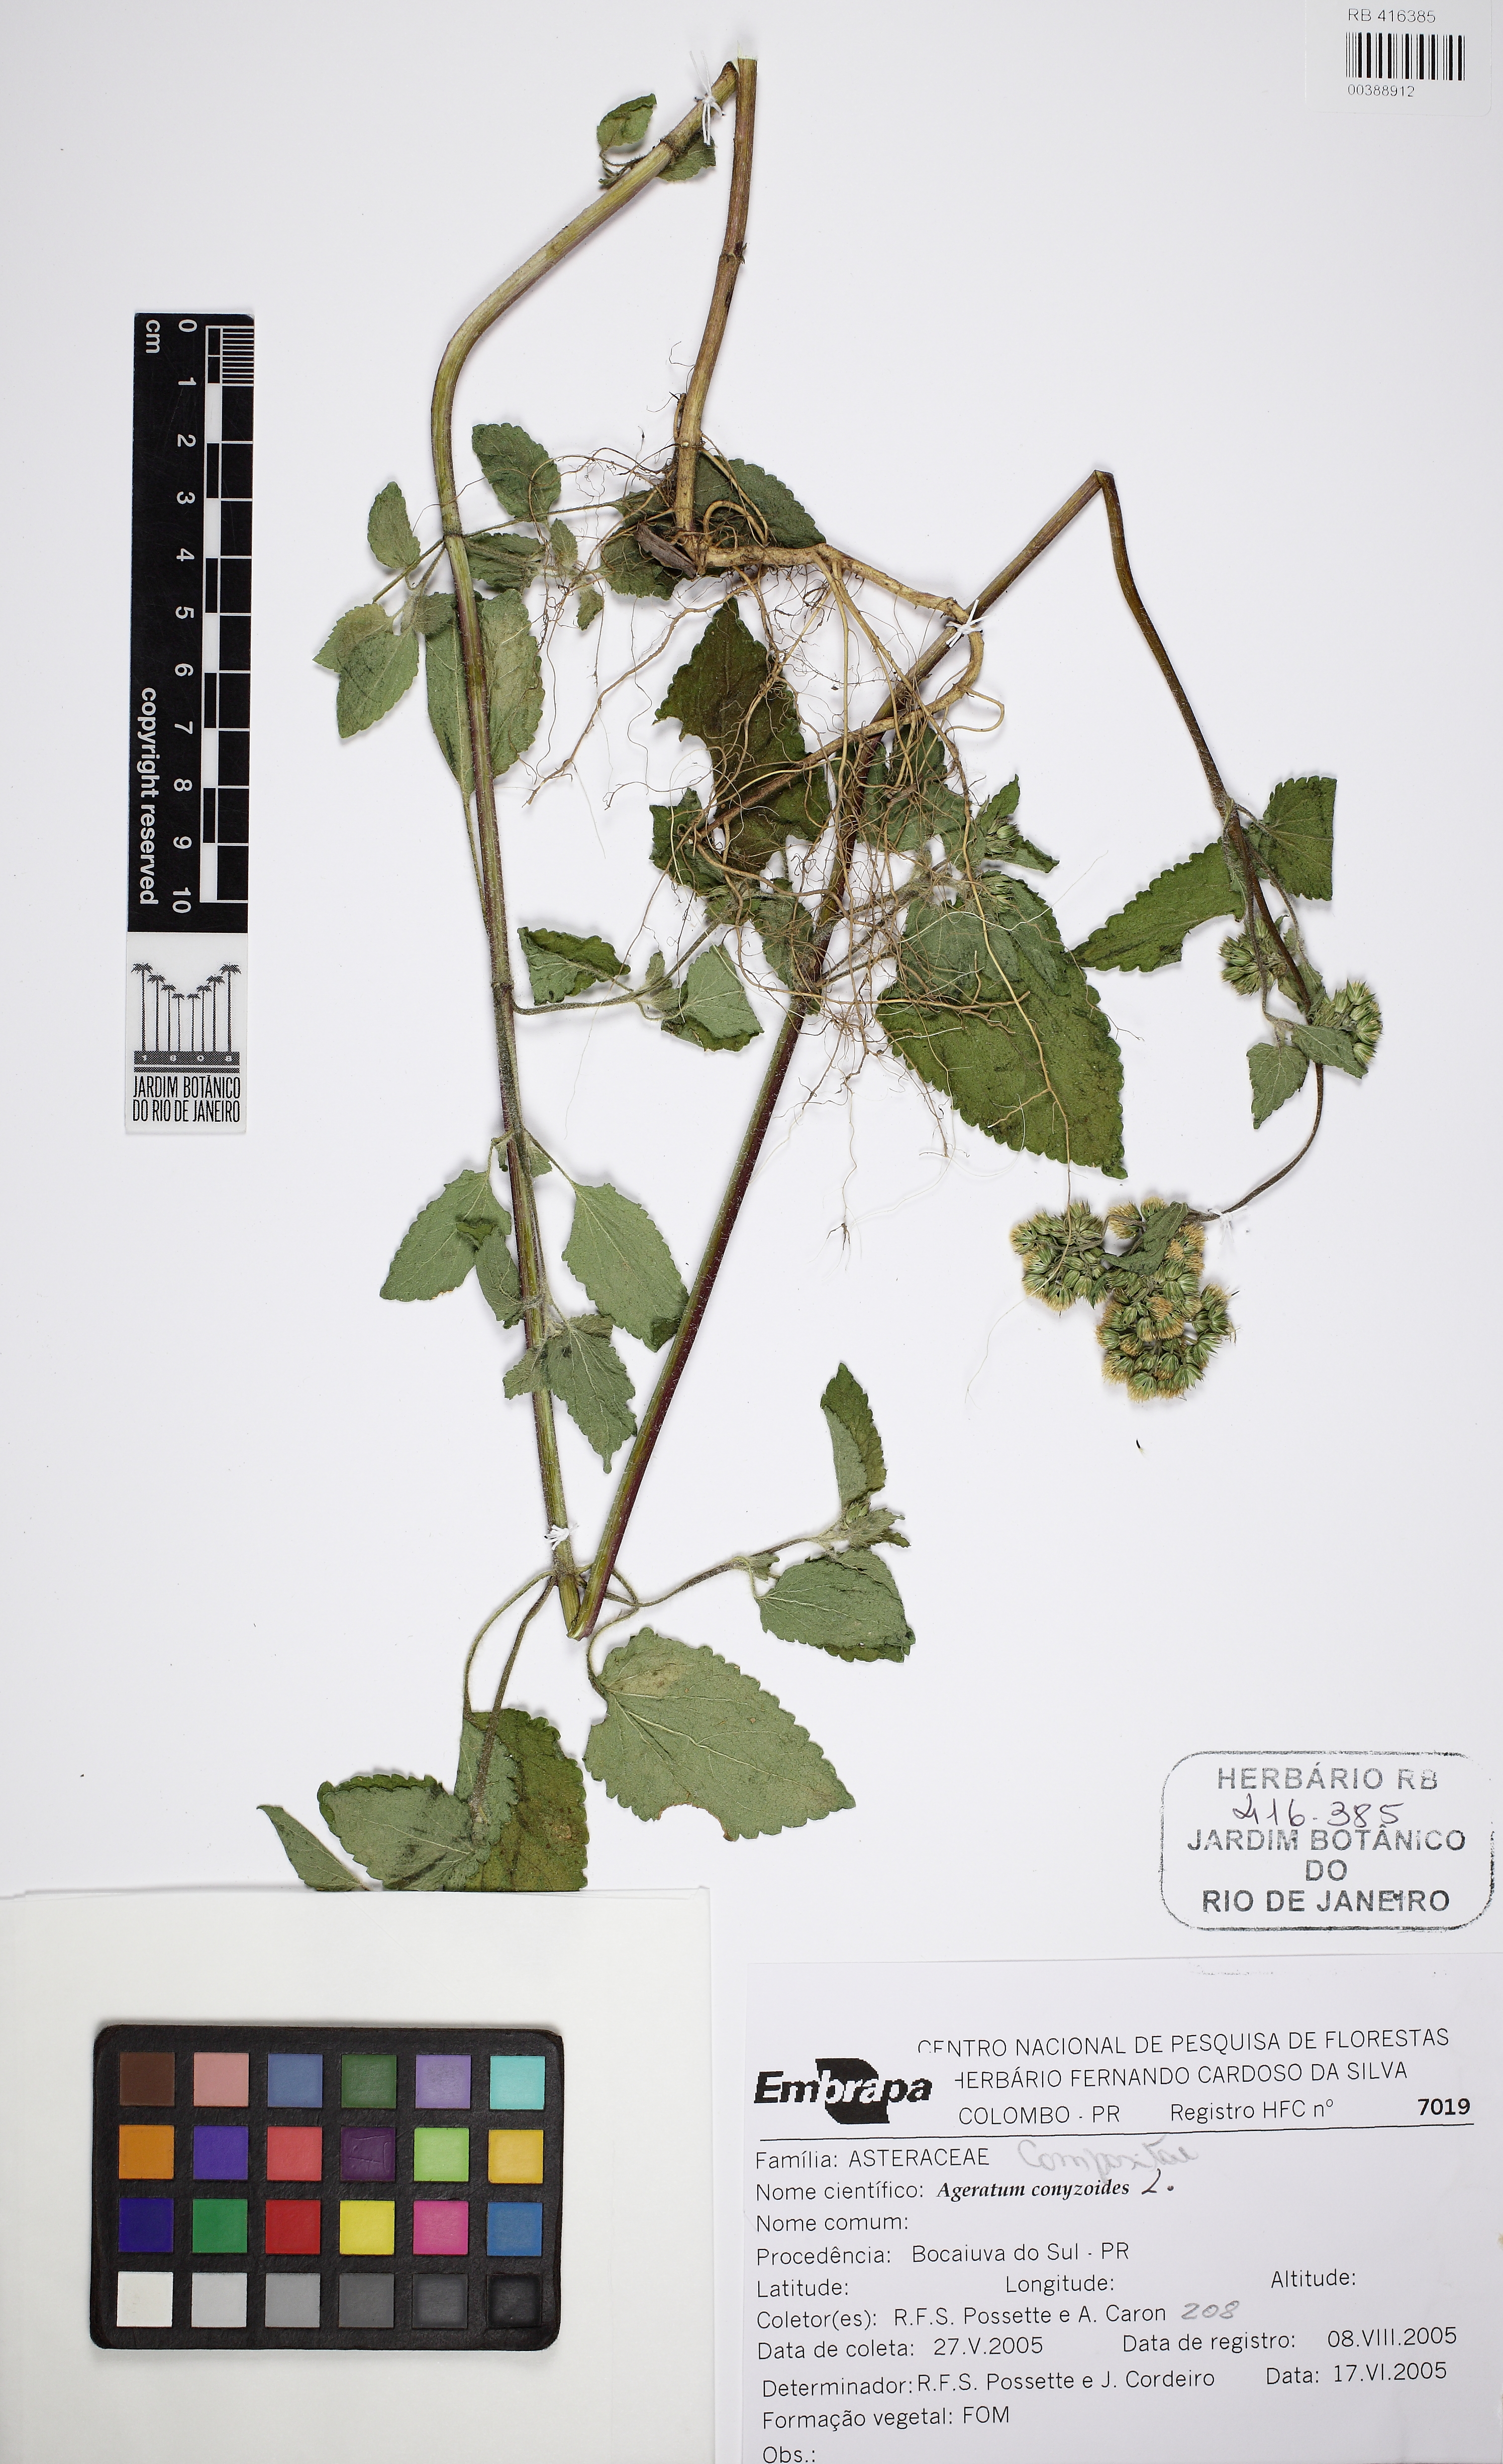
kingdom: Plantae
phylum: Tracheophyta
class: Magnoliopsida
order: Asterales
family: Asteraceae
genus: Ageratum
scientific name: Ageratum conyzoides
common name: Tropical whiteweed
